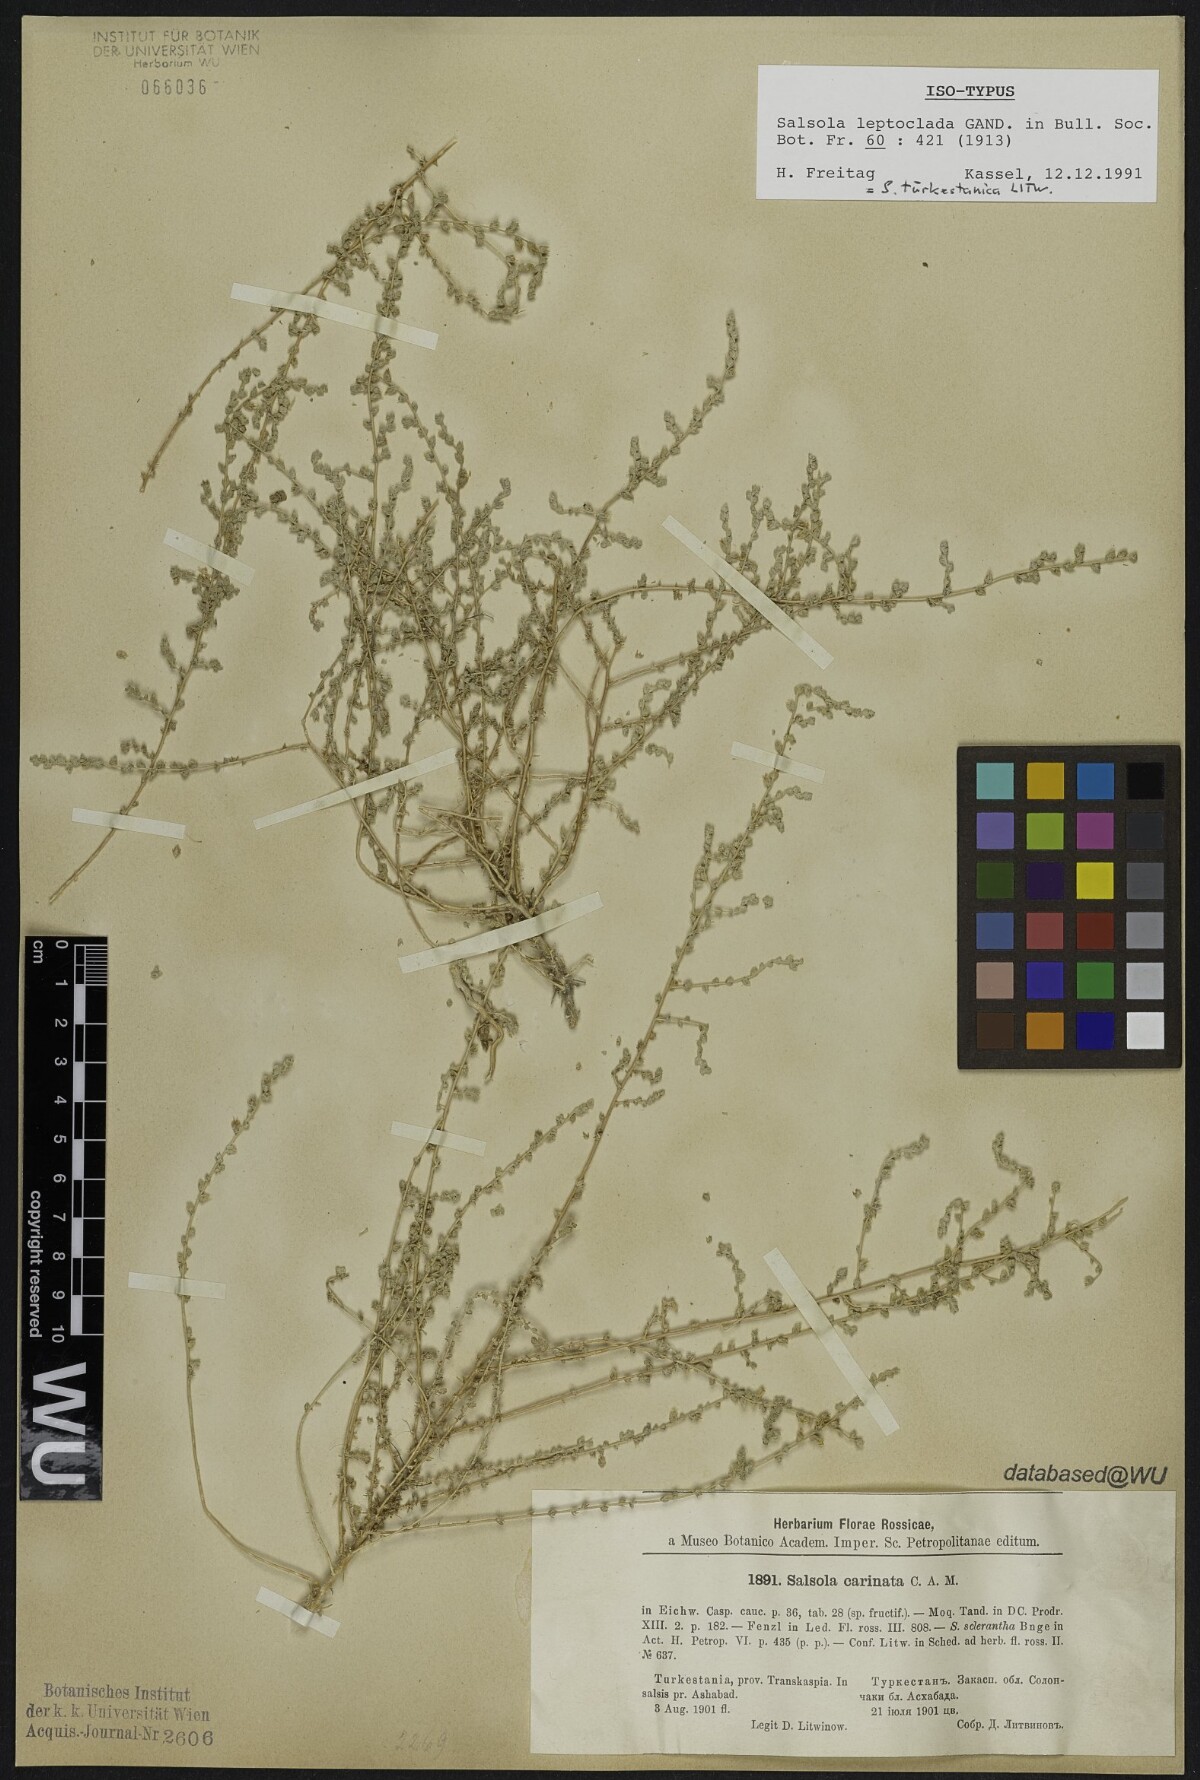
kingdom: Plantae
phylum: Tracheophyta
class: Magnoliopsida
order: Caryophyllales
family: Amaranthaceae
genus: Caroxylon
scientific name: Caroxylon turkestanicum
